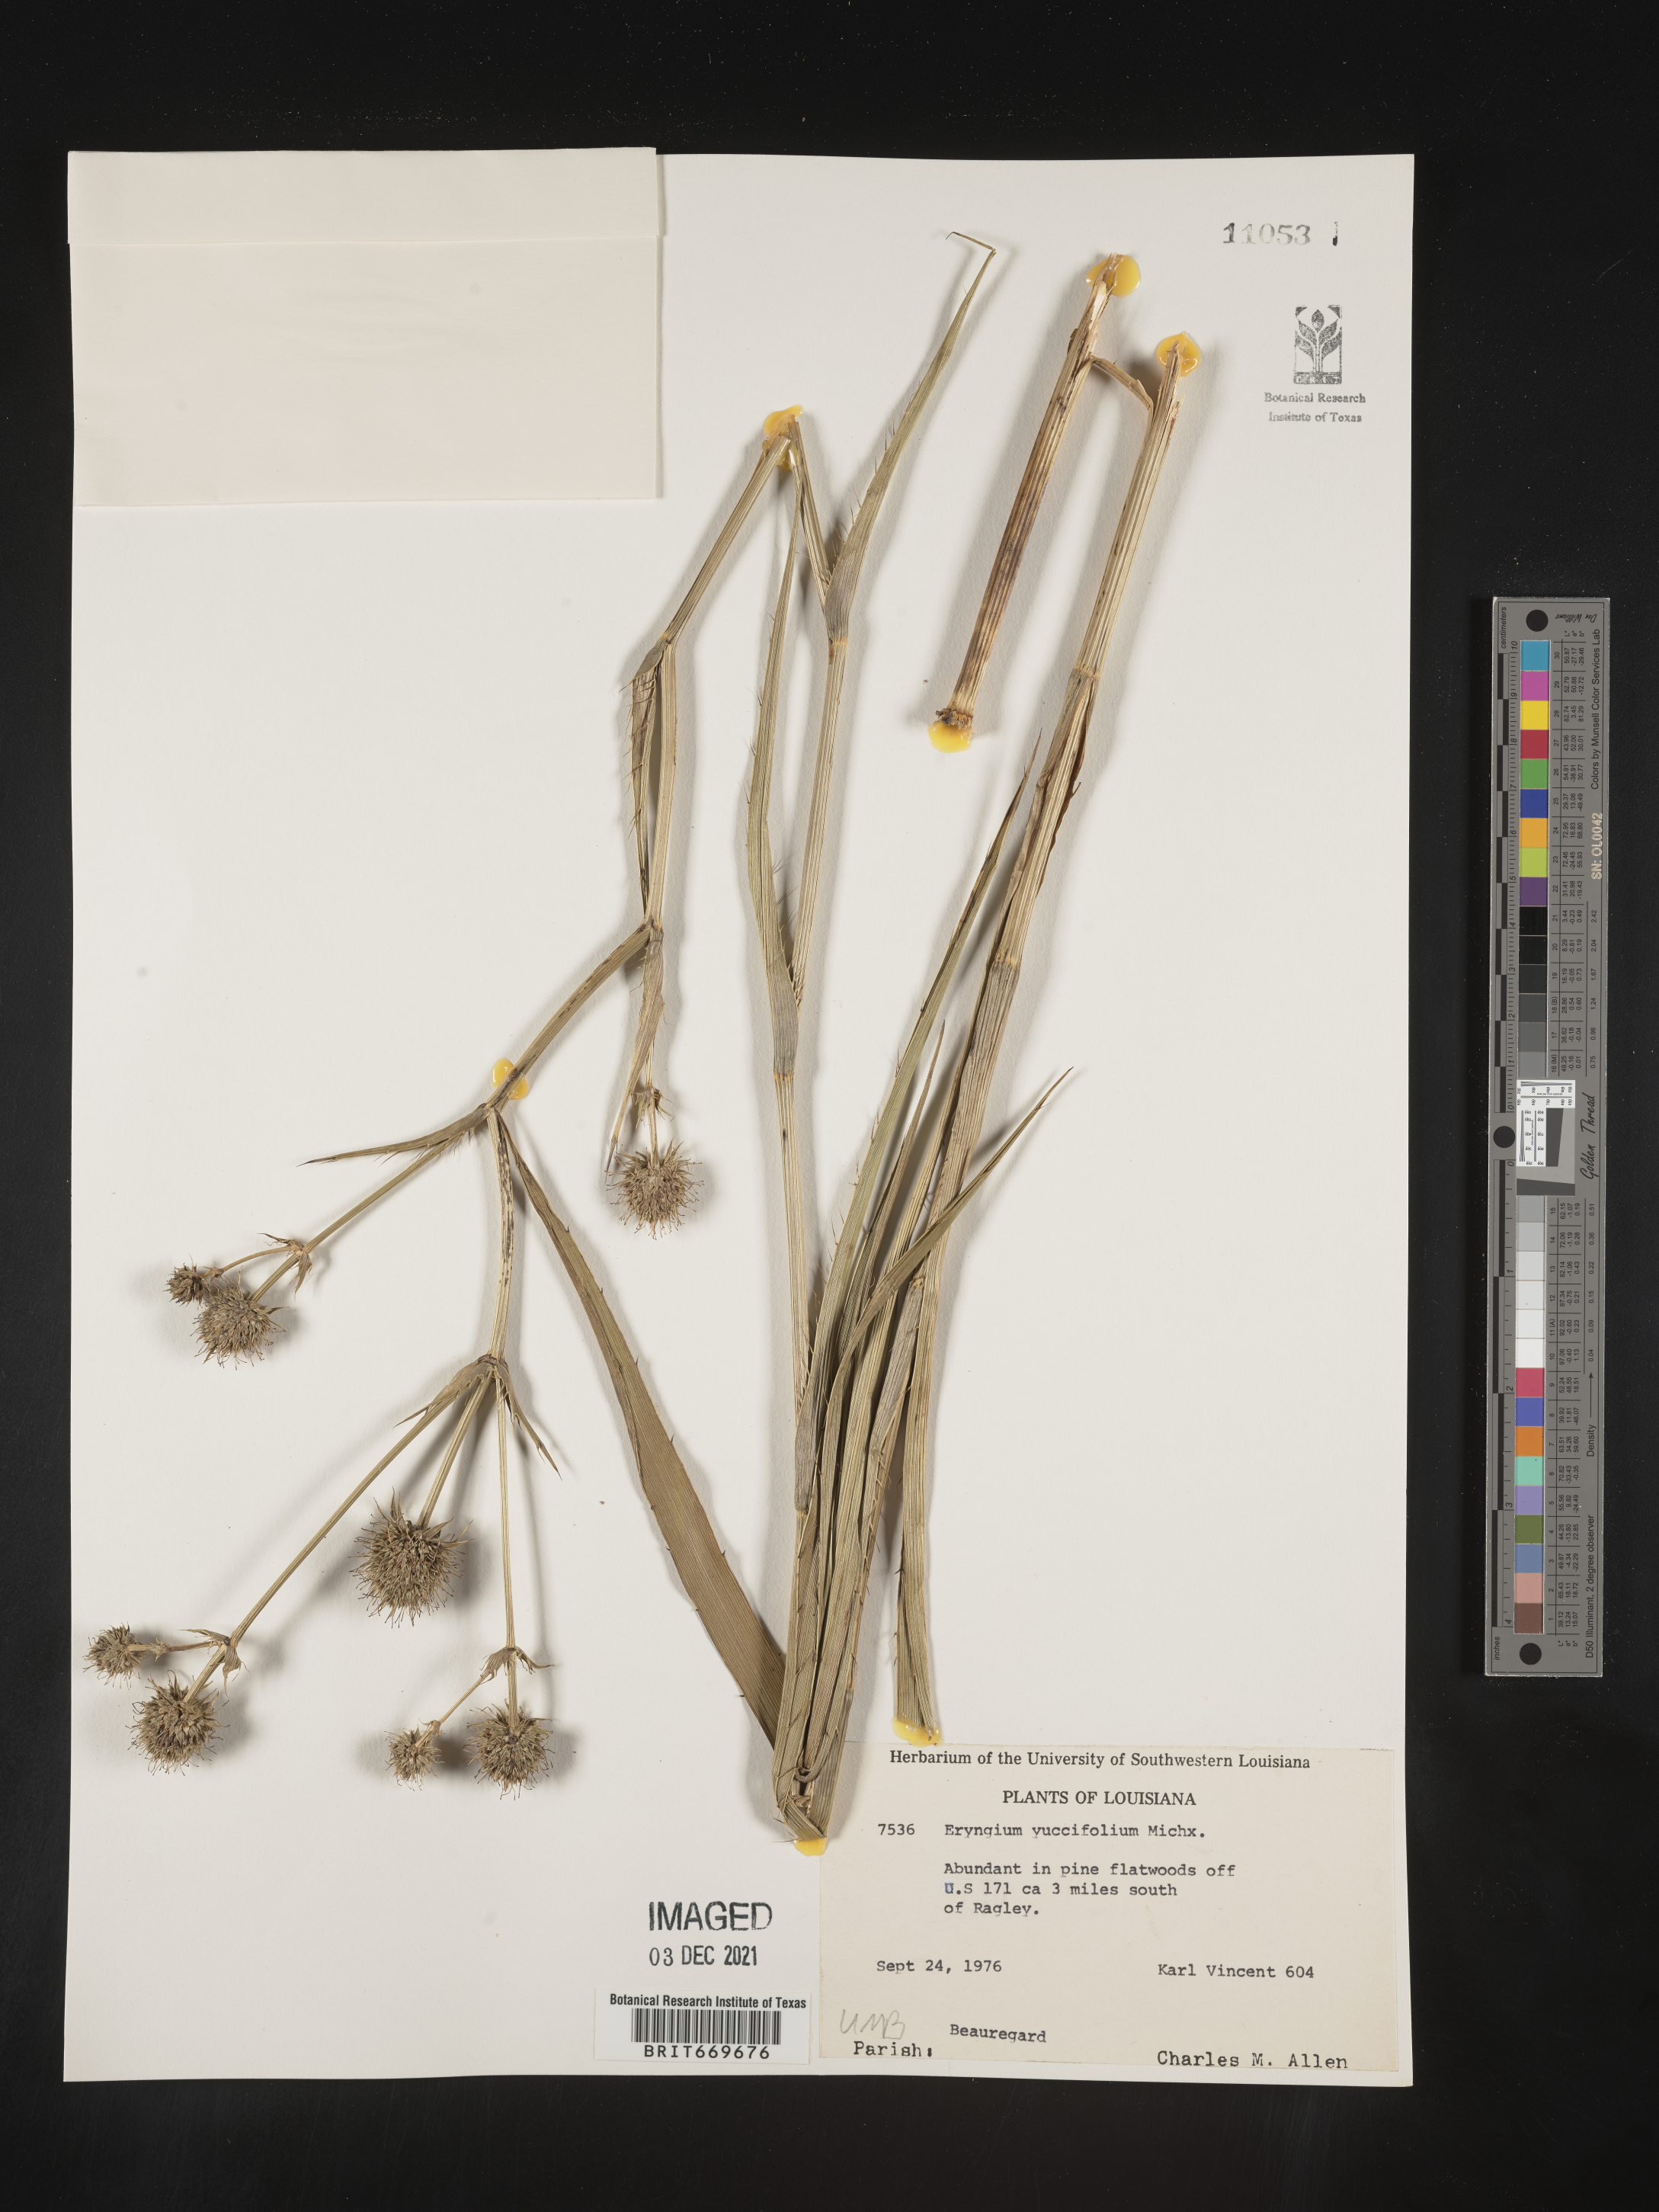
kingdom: Plantae
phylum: Tracheophyta
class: Magnoliopsida
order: Apiales
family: Apiaceae
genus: Eryngium
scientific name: Eryngium yuccifolium
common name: Button eryngo
